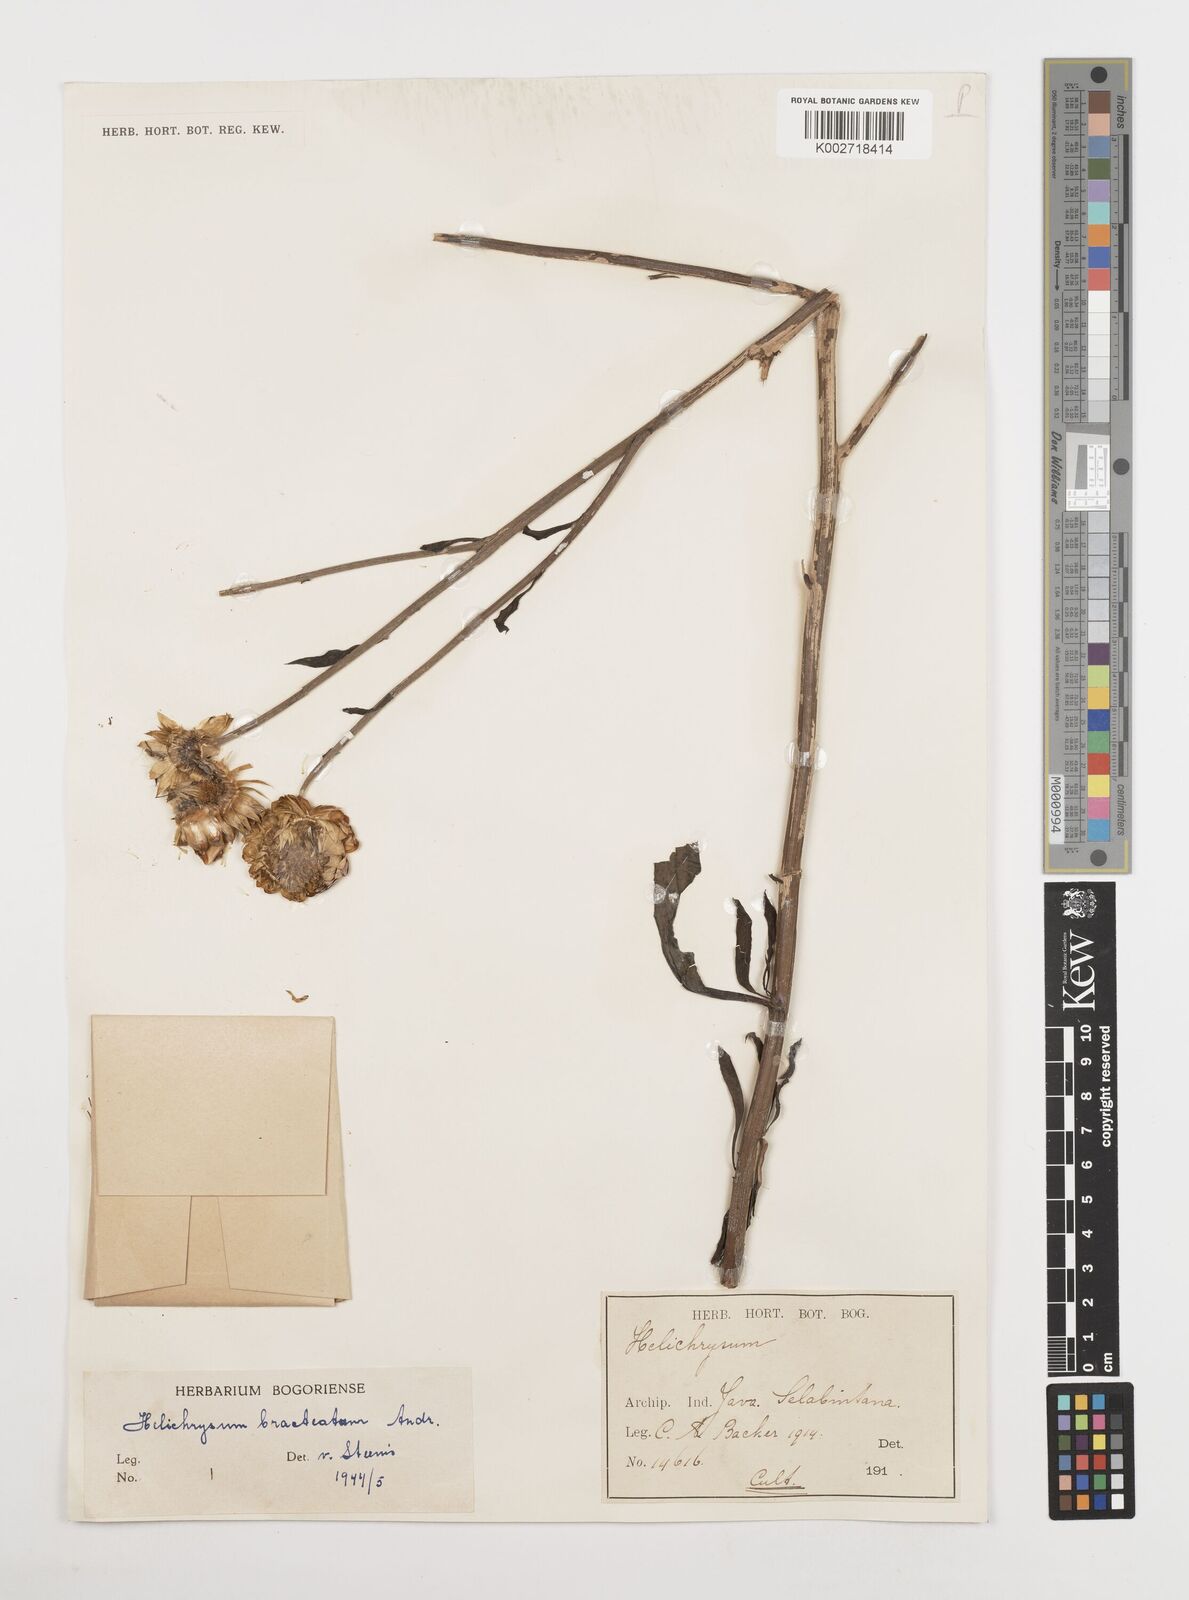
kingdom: Plantae
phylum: Tracheophyta
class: Magnoliopsida
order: Asterales
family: Asteraceae
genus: Xerochrysum
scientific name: Xerochrysum bracteatum
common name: Bracted strawflower
